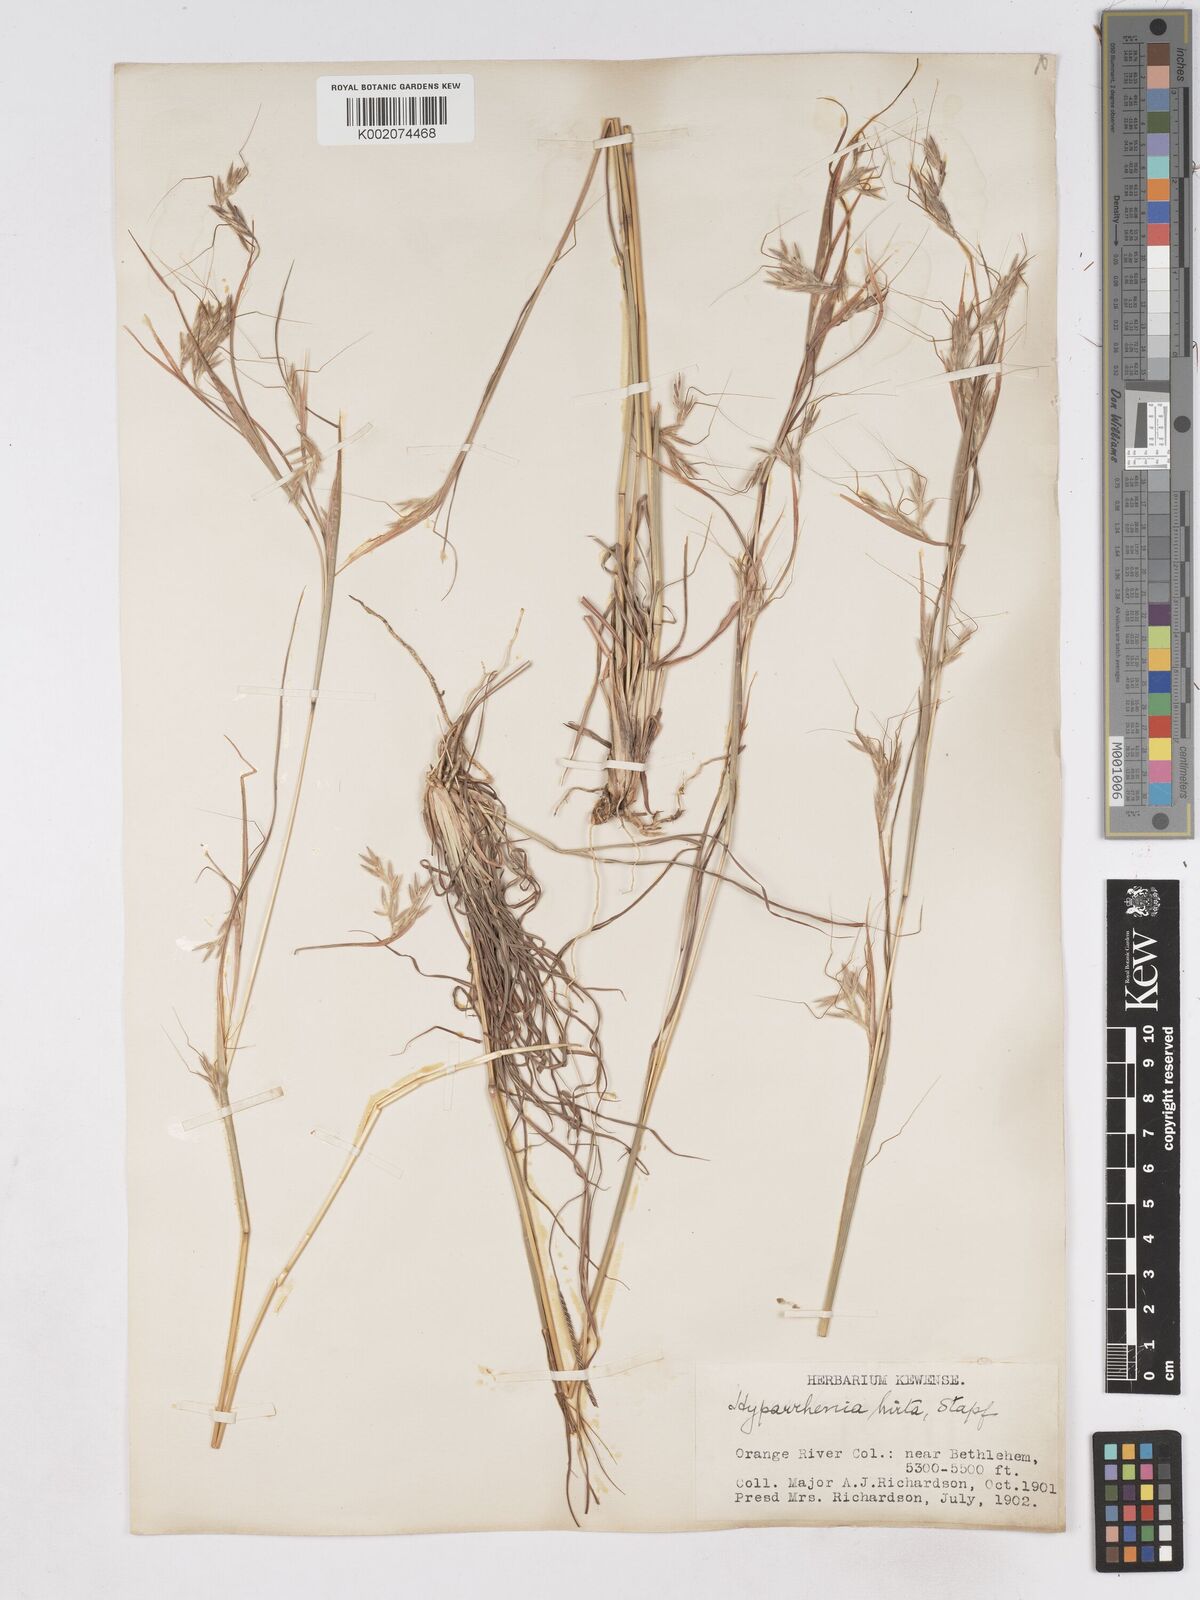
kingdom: Plantae
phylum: Tracheophyta
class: Liliopsida
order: Poales
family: Poaceae
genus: Hyparrhenia
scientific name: Hyparrhenia hirta
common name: Thatching grass
